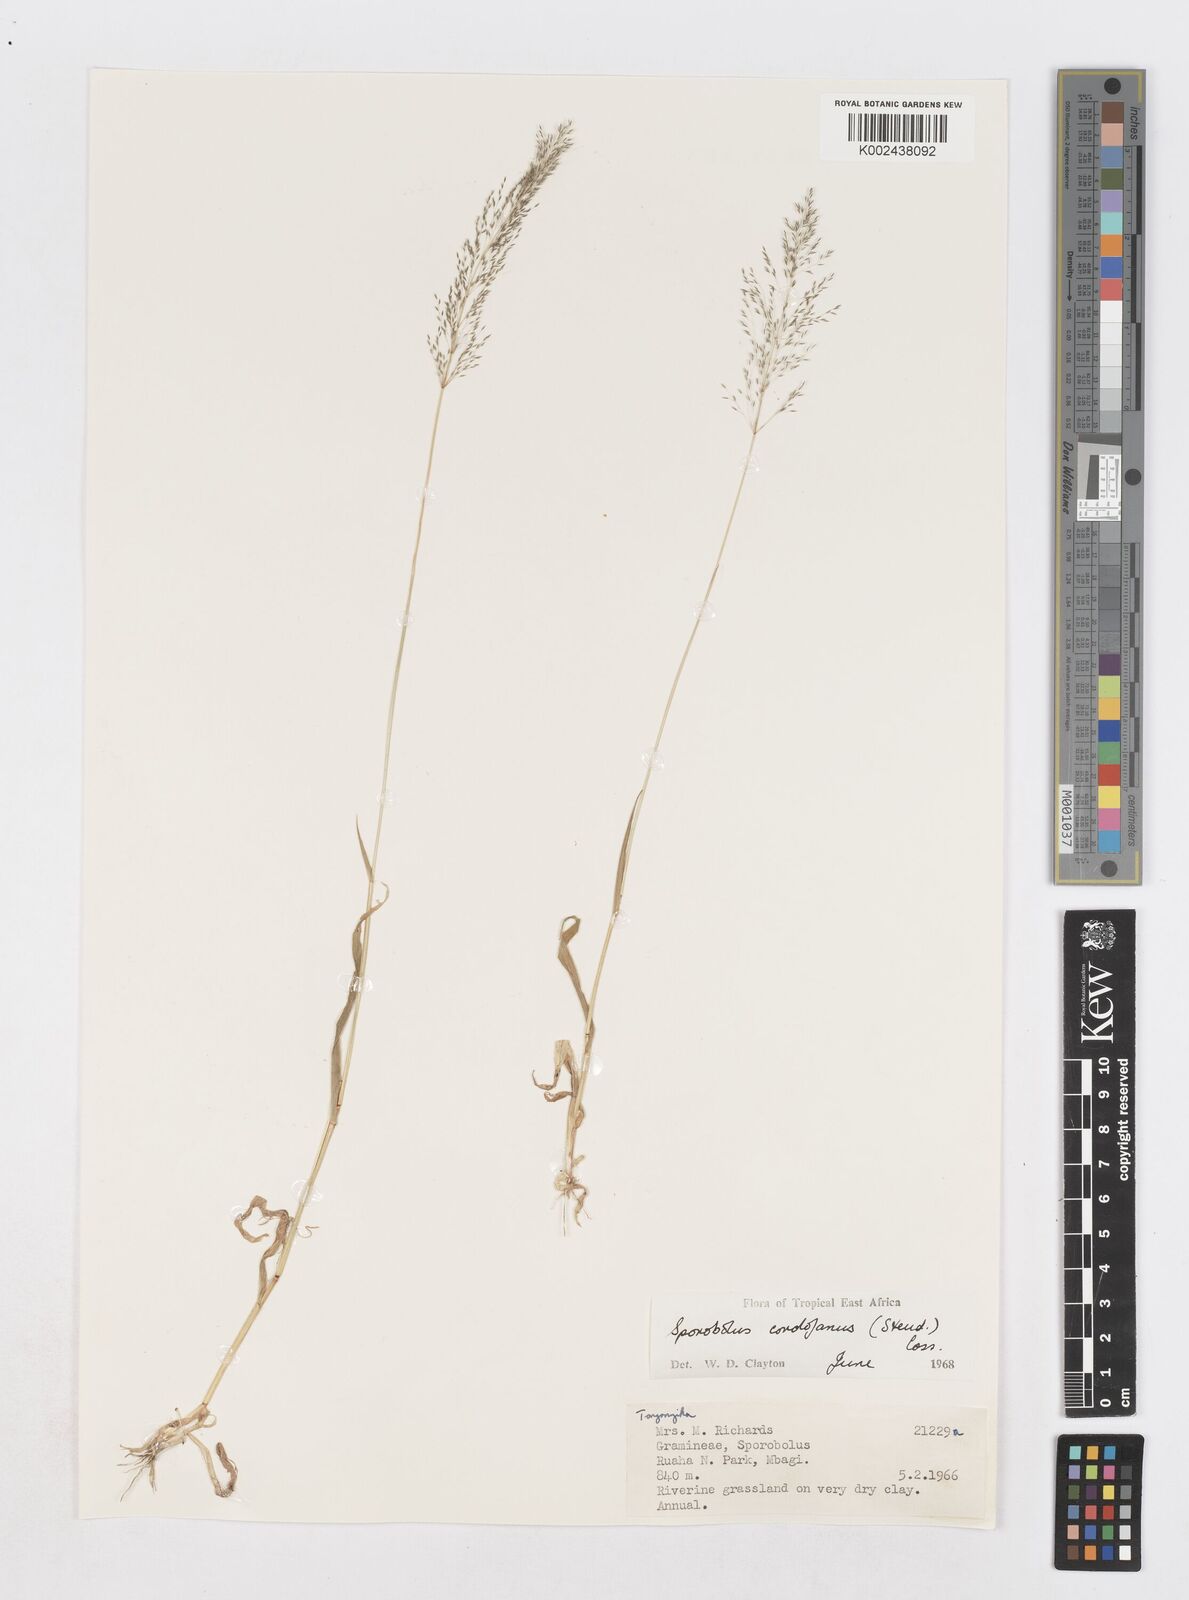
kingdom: Plantae
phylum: Tracheophyta
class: Liliopsida
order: Poales
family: Poaceae
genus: Sporobolus
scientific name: Sporobolus cordofanus
